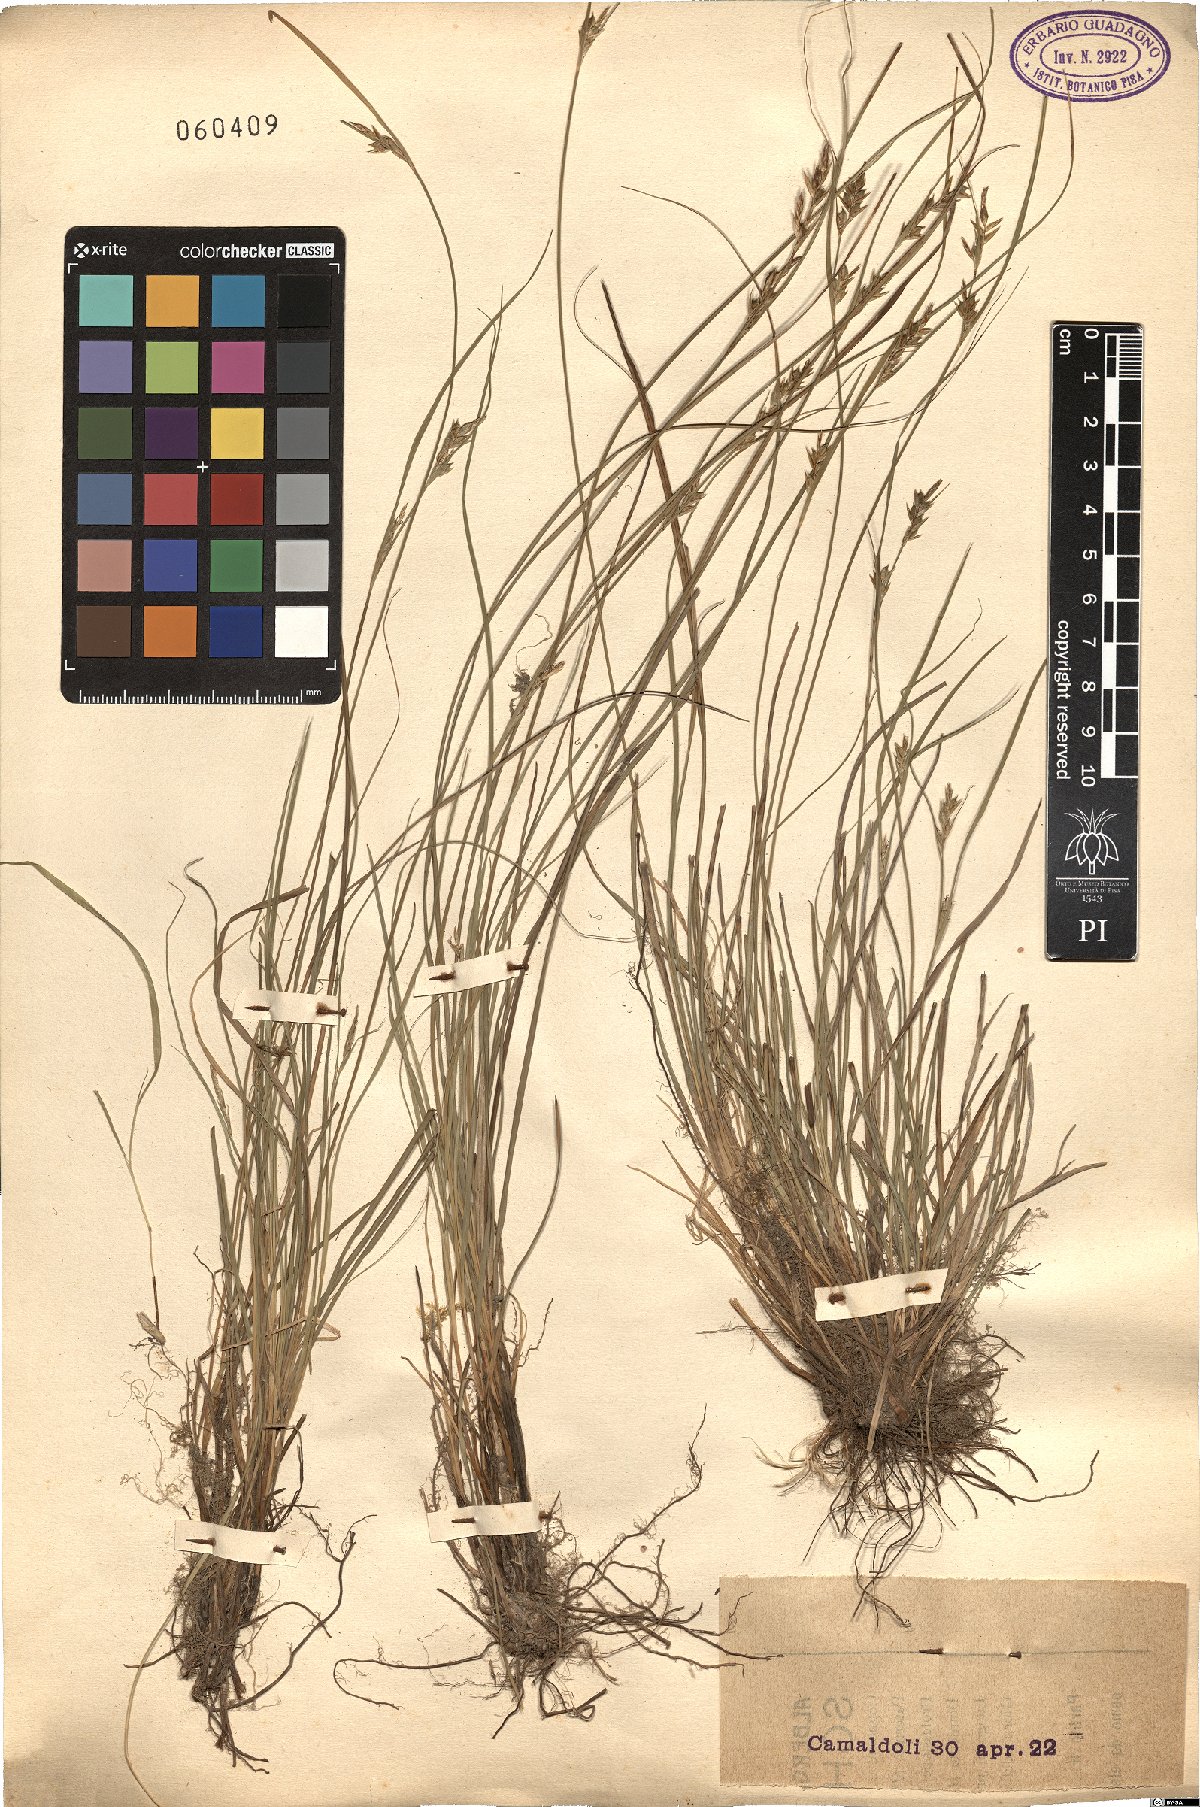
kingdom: Plantae
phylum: Tracheophyta
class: Liliopsida
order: Poales
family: Cyperaceae
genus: Carex
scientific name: Carex
